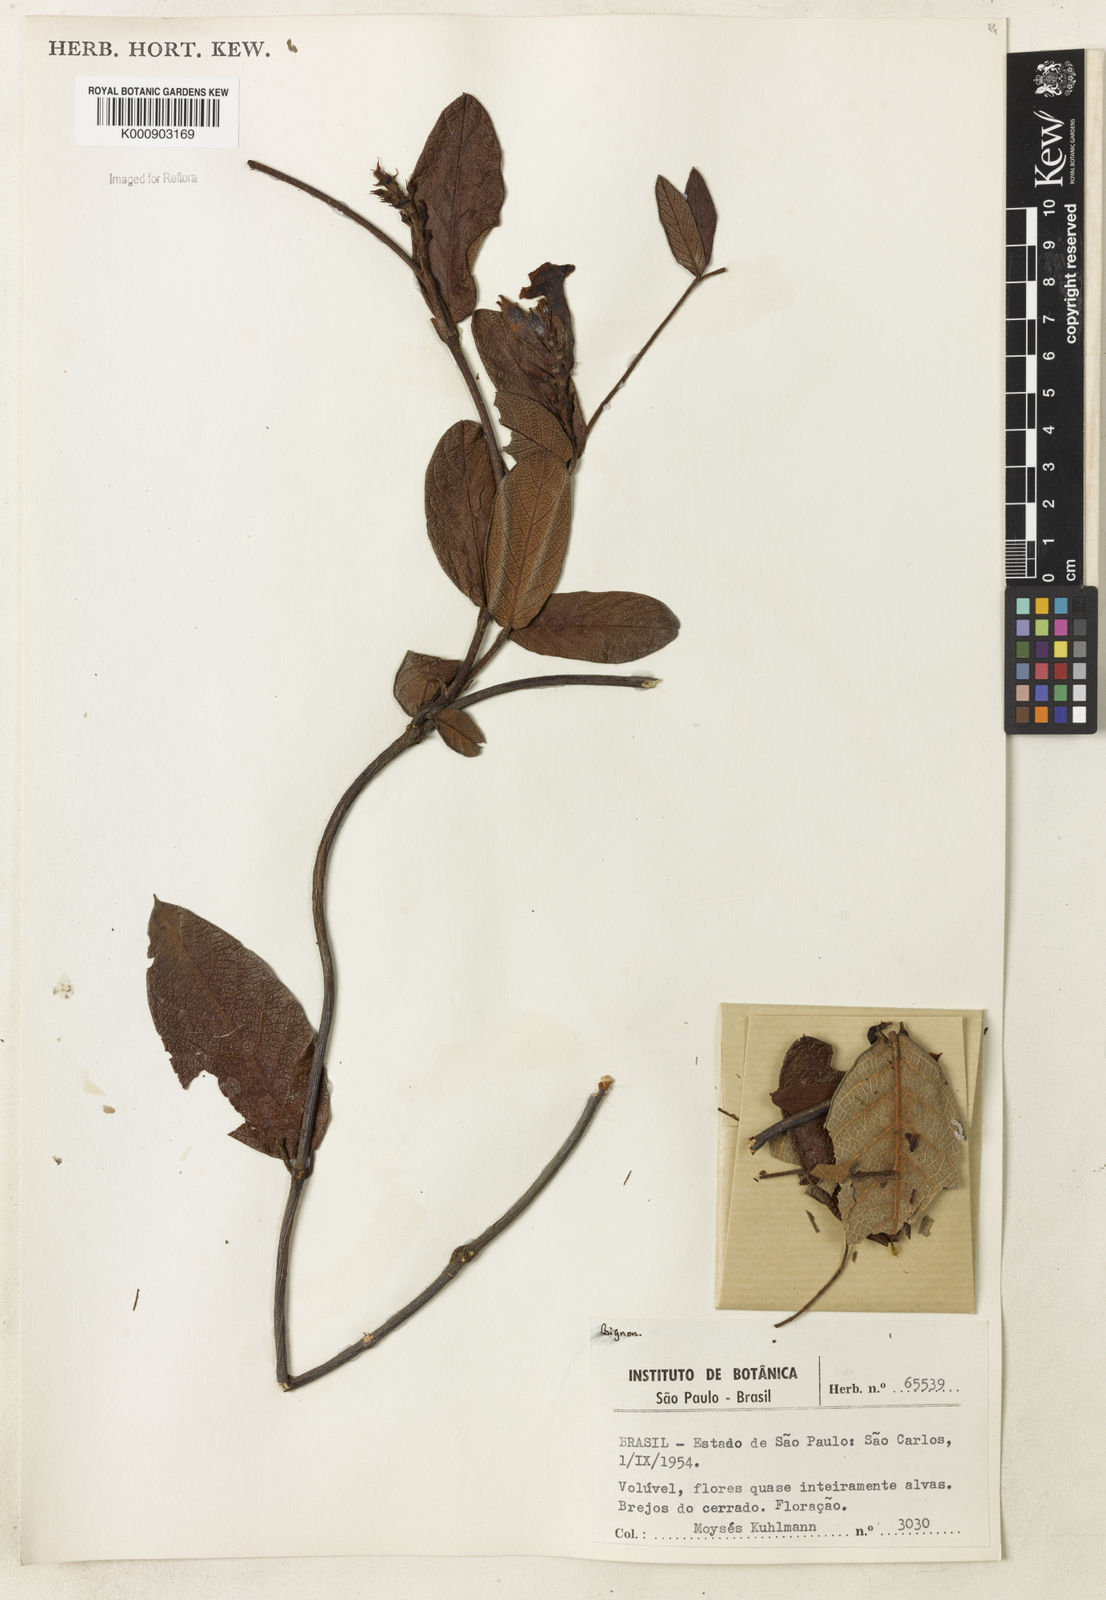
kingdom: Plantae
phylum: Tracheophyta
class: Magnoliopsida
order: Lamiales
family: Bignoniaceae
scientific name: Bignoniaceae
